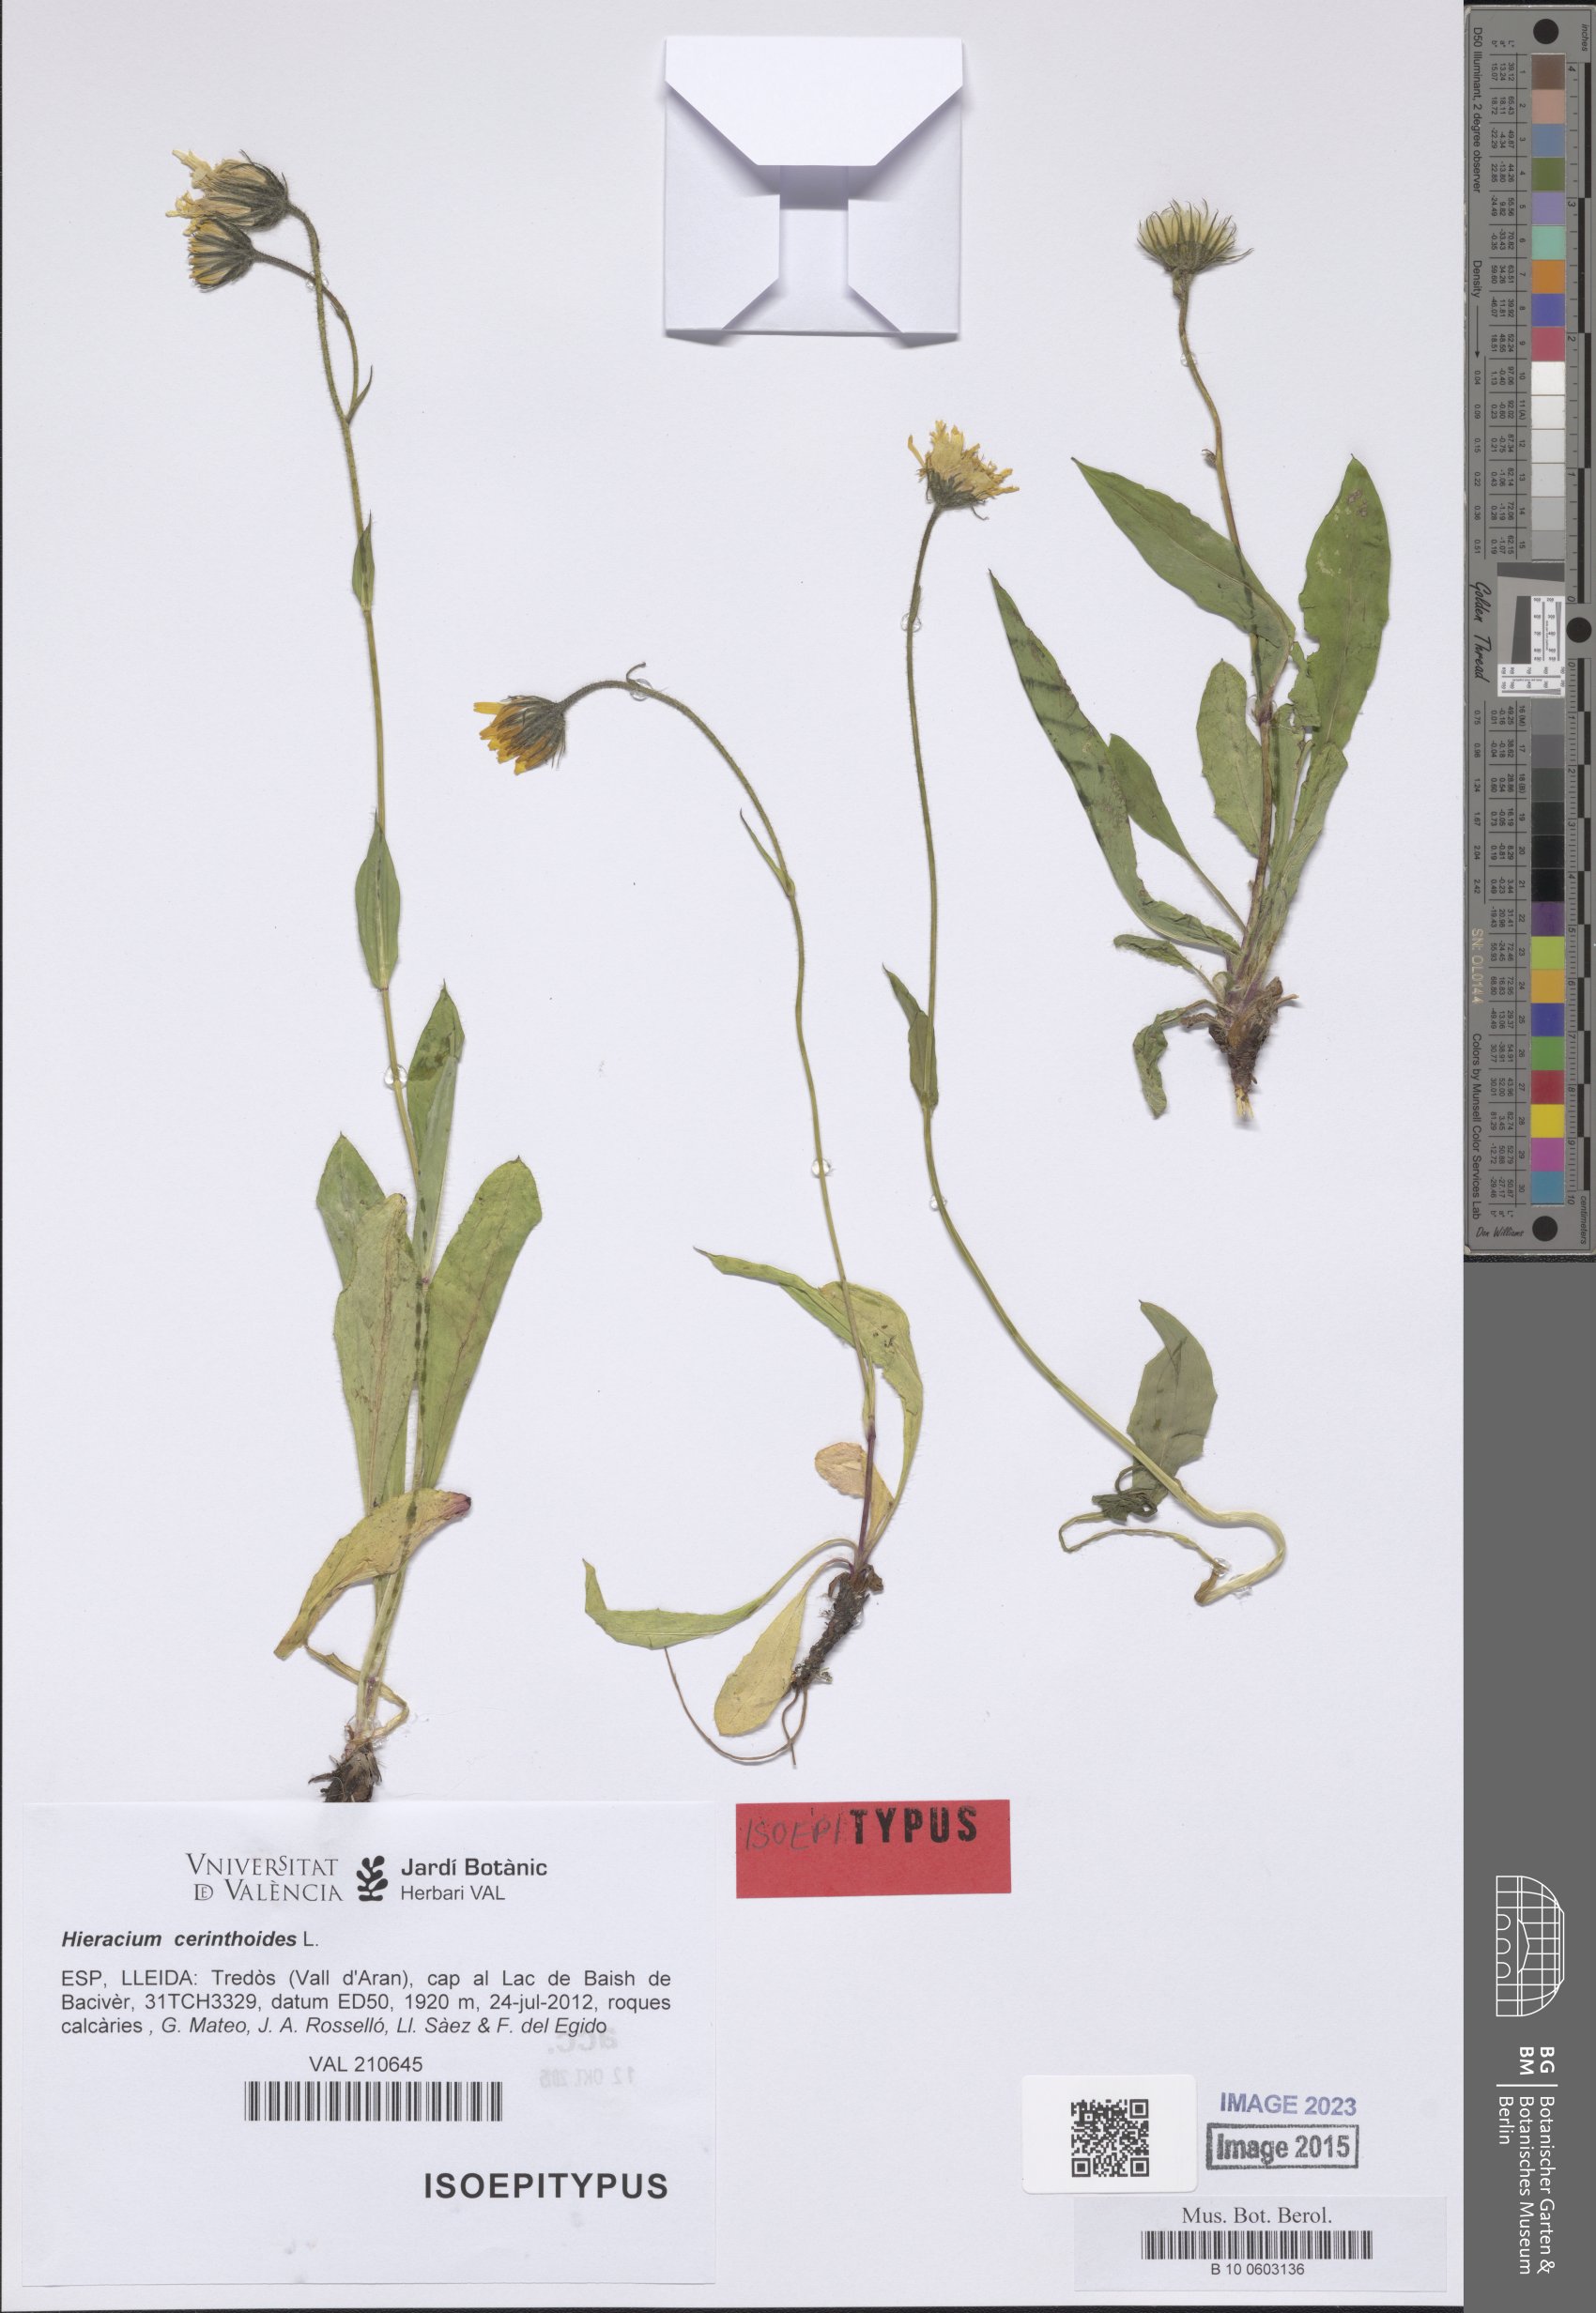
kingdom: Plantae
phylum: Tracheophyta
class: Magnoliopsida
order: Asterales
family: Asteraceae
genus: Hieracium
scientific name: Hieracium cerinthoides
